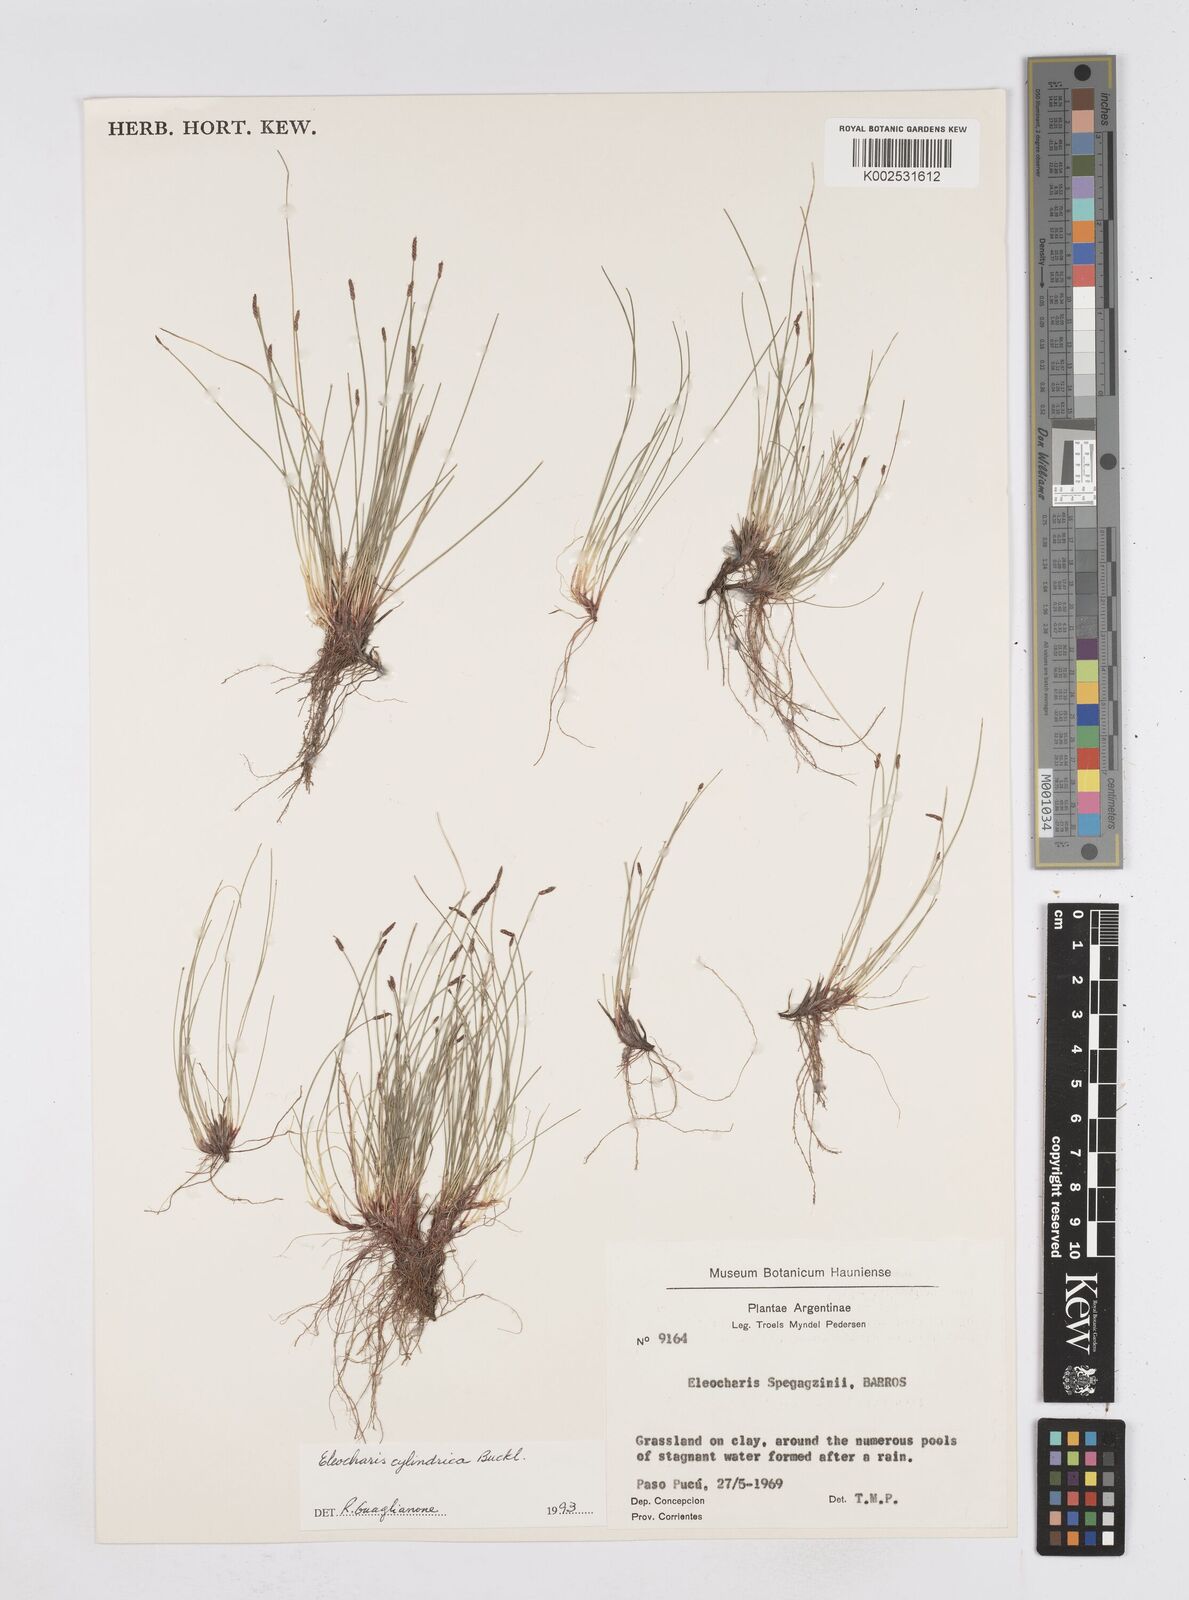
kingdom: Plantae
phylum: Tracheophyta
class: Liliopsida
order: Poales
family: Cyperaceae
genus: Eleocharis
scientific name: Eleocharis cylindrica
